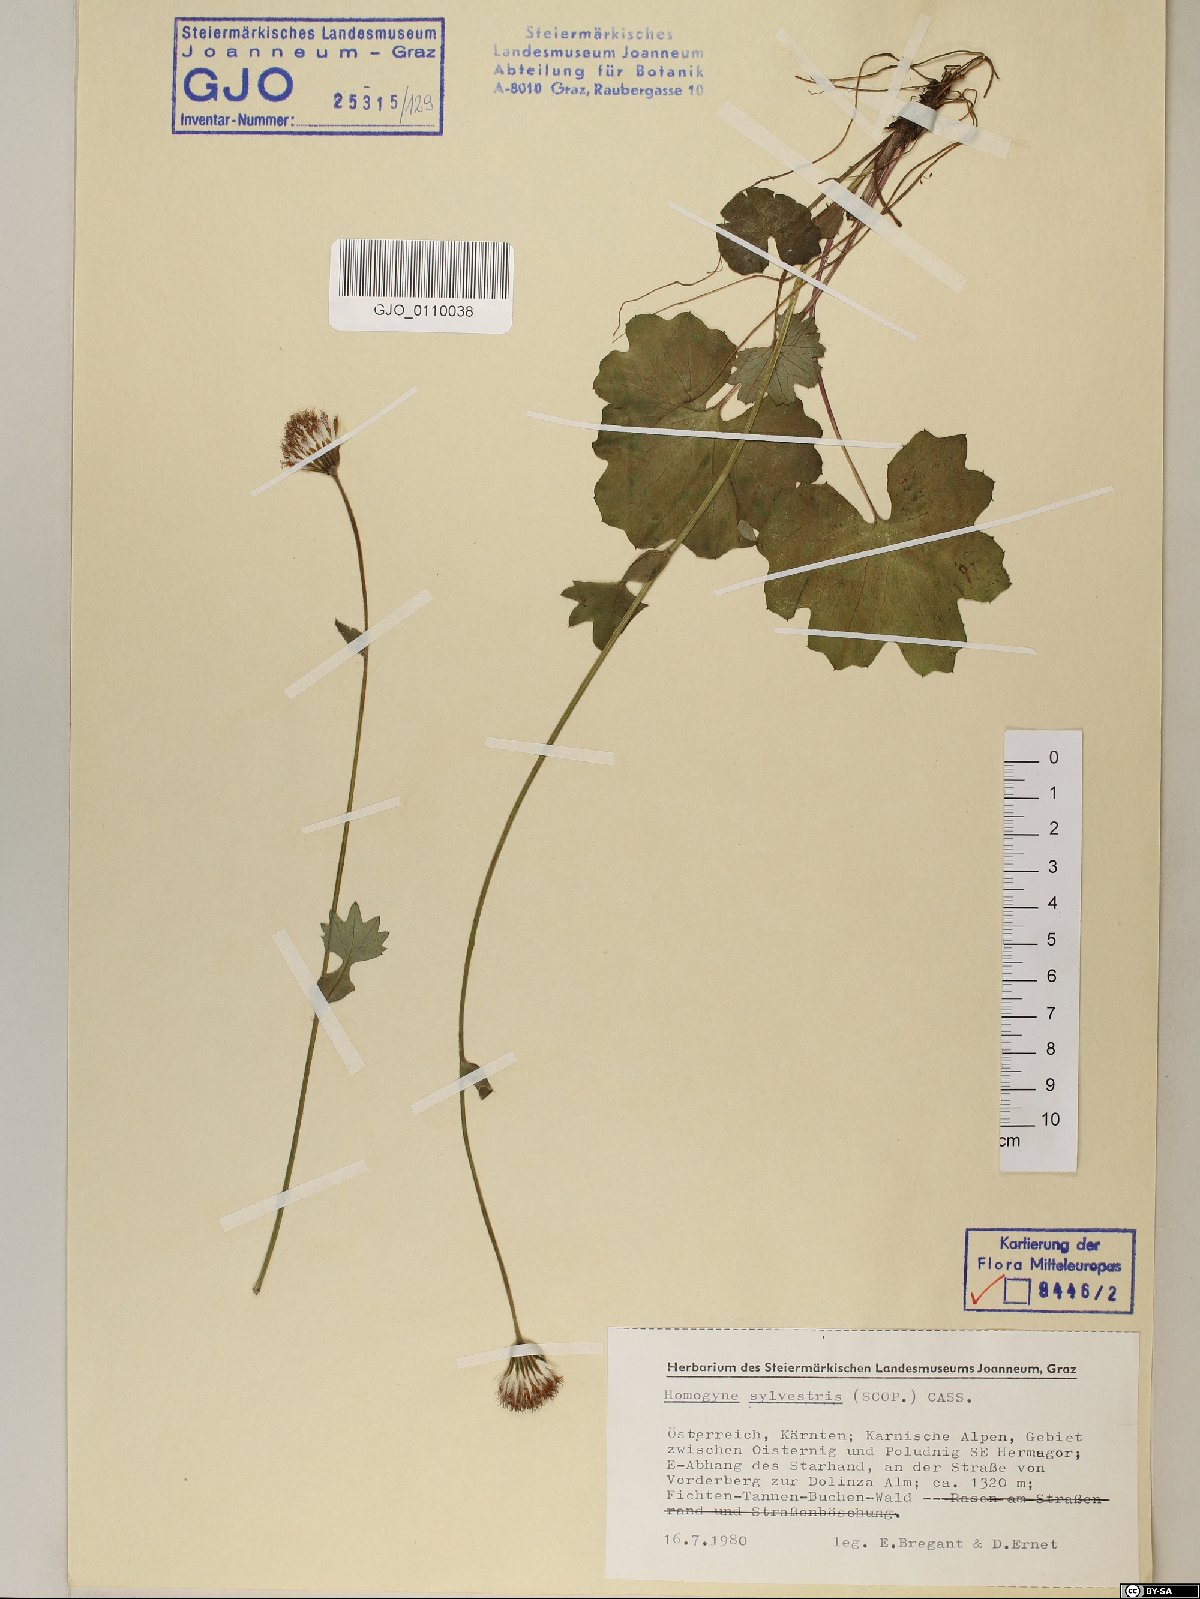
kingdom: Plantae
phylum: Tracheophyta
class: Magnoliopsida
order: Asterales
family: Asteraceae
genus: Homogyne
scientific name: Homogyne sylvestris
